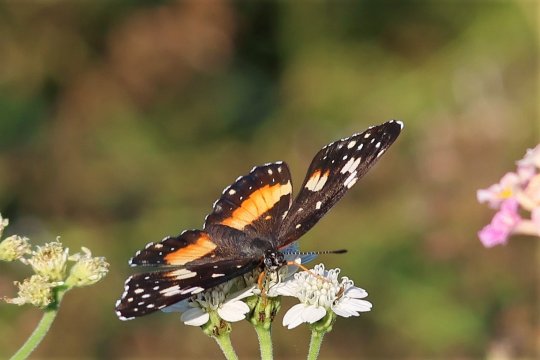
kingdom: Animalia
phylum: Arthropoda
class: Insecta
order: Lepidoptera
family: Nymphalidae
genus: Chlosyne
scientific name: Chlosyne lacinia
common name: Bordered Patch
